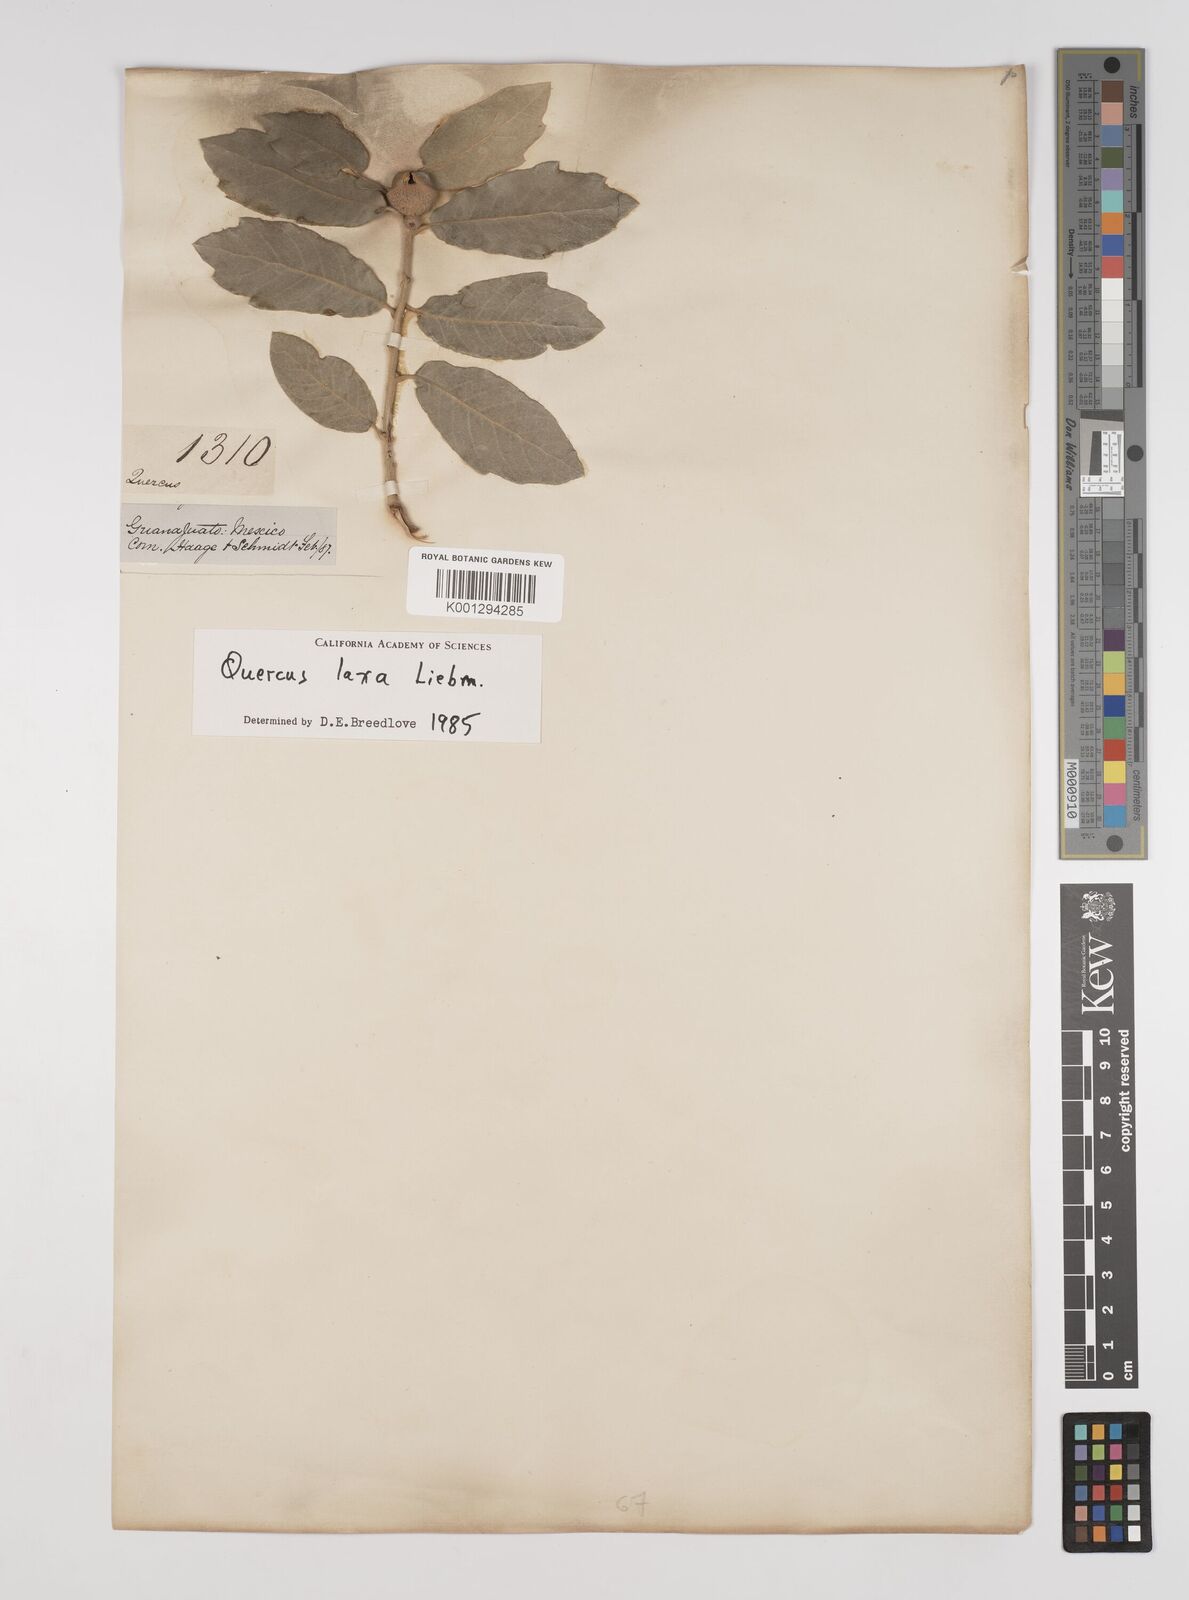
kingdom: Plantae
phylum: Tracheophyta
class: Magnoliopsida
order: Fagales
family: Fagaceae
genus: Quercus
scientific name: Quercus xylina
